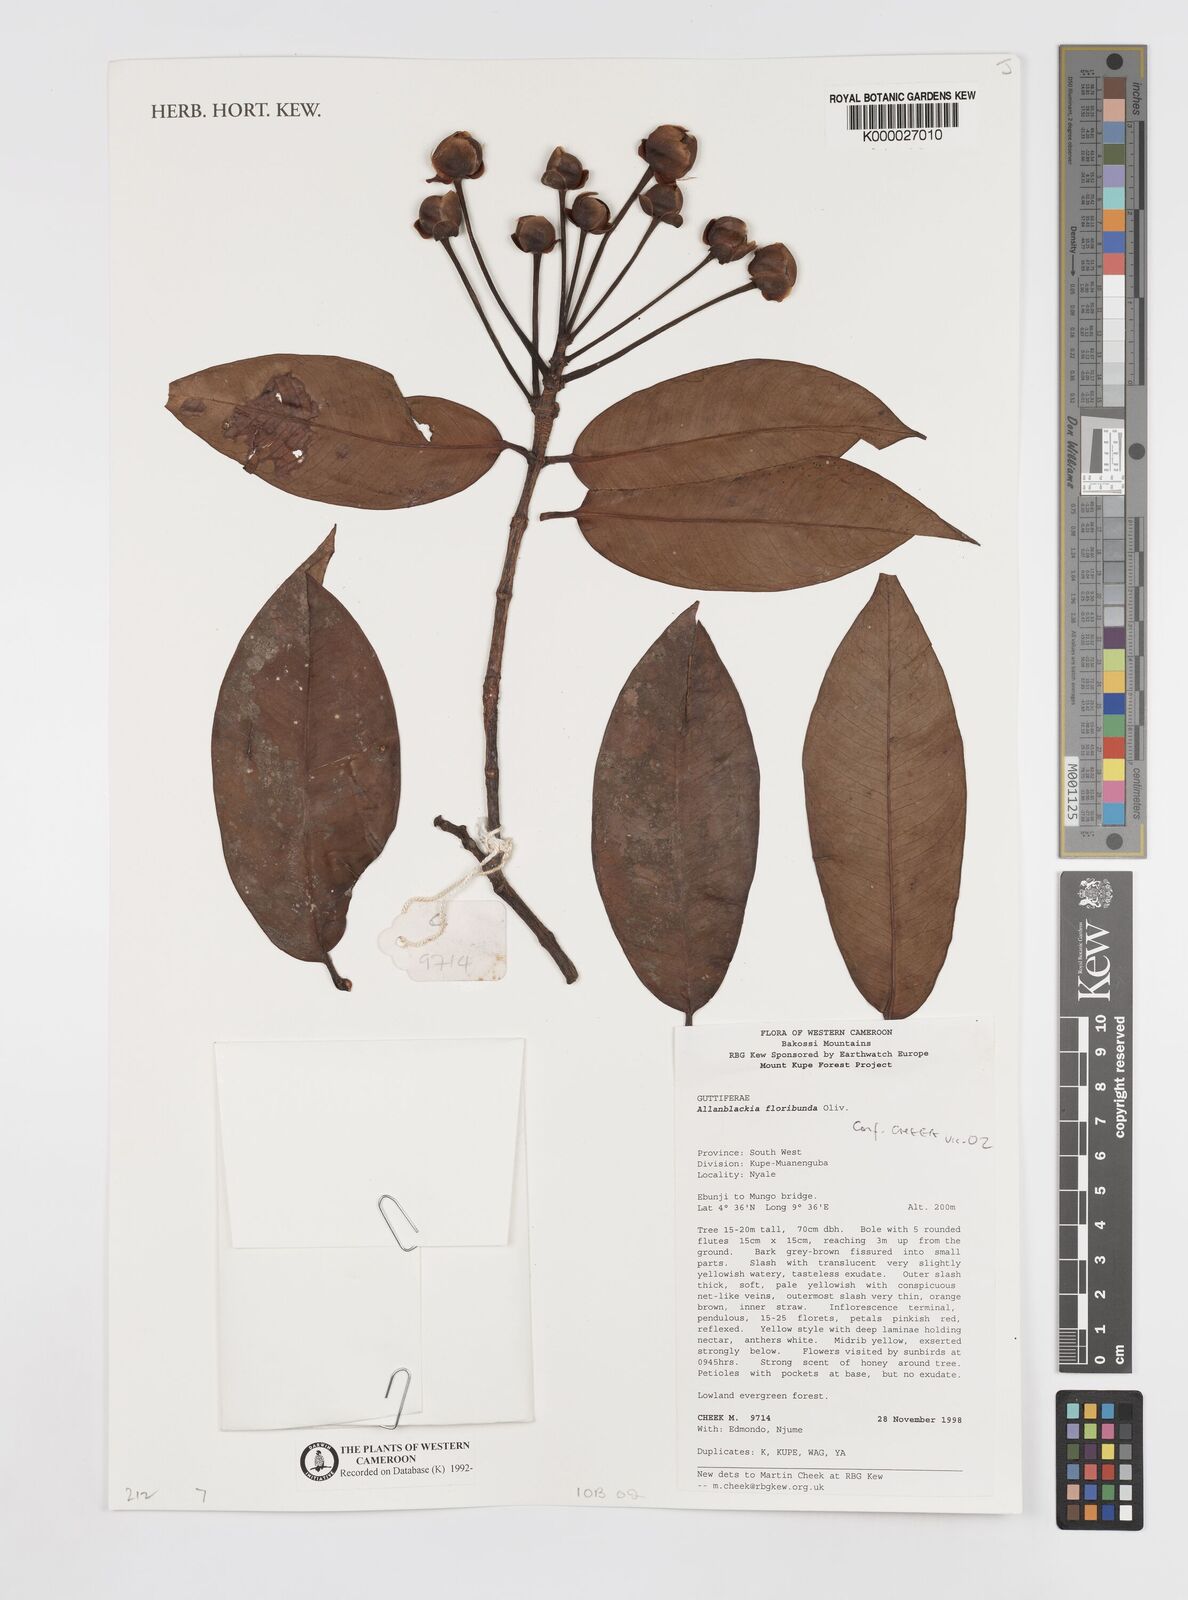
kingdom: Plantae
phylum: Tracheophyta
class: Magnoliopsida
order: Malpighiales
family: Clusiaceae
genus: Allanblackia
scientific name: Allanblackia floribunda
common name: Tallow tree
